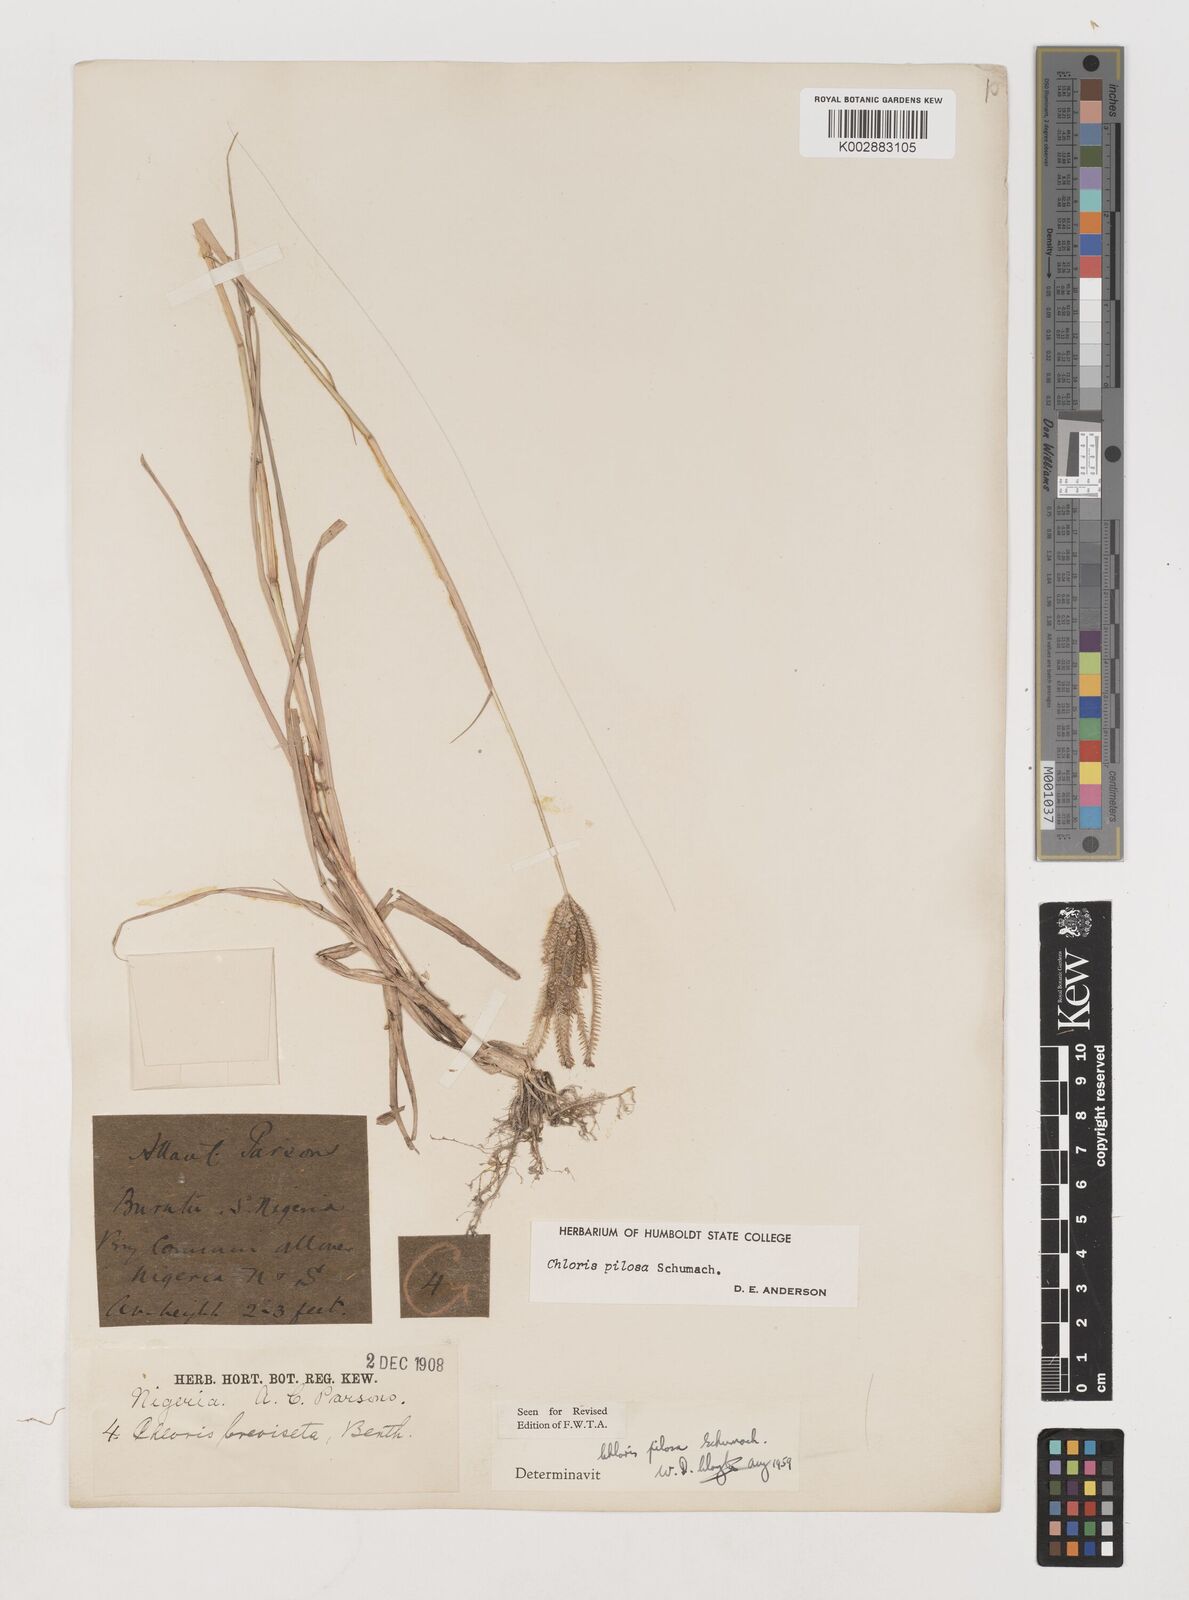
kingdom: Plantae
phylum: Tracheophyta
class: Liliopsida
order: Poales
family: Poaceae
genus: Chloris
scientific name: Chloris pilosa
